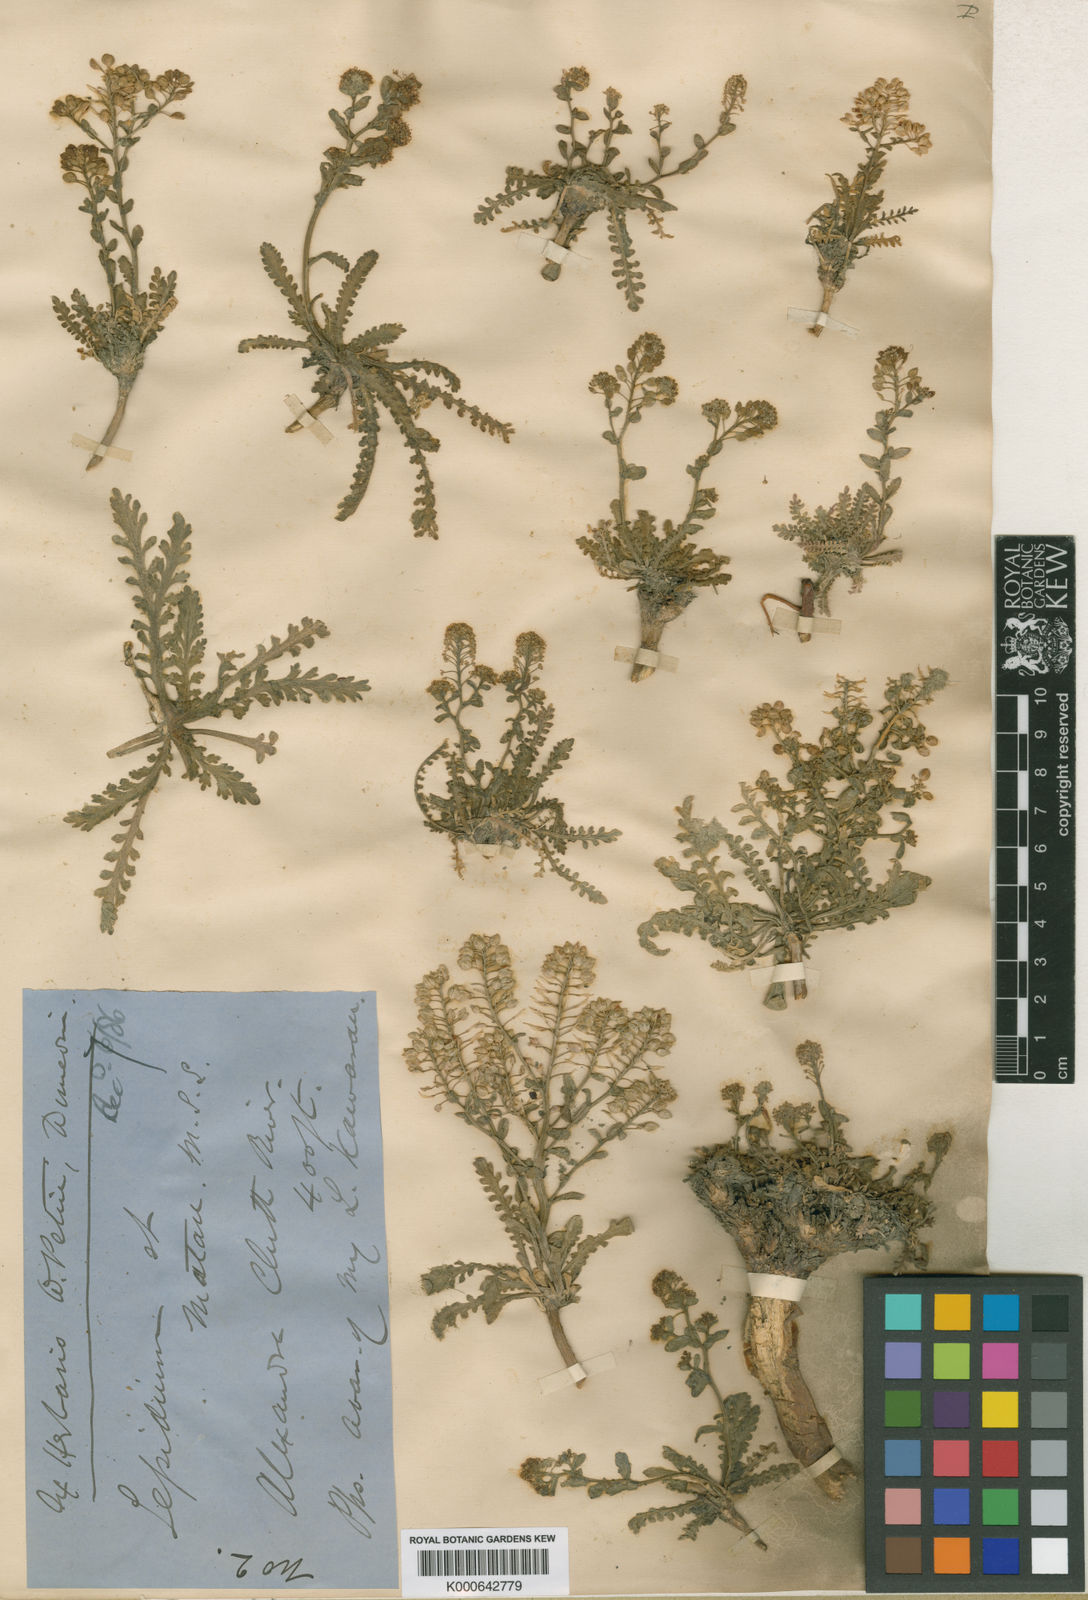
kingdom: Plantae
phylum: Tracheophyta
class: Magnoliopsida
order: Brassicales
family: Brassicaceae
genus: Lepidium
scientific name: Lepidium matau
